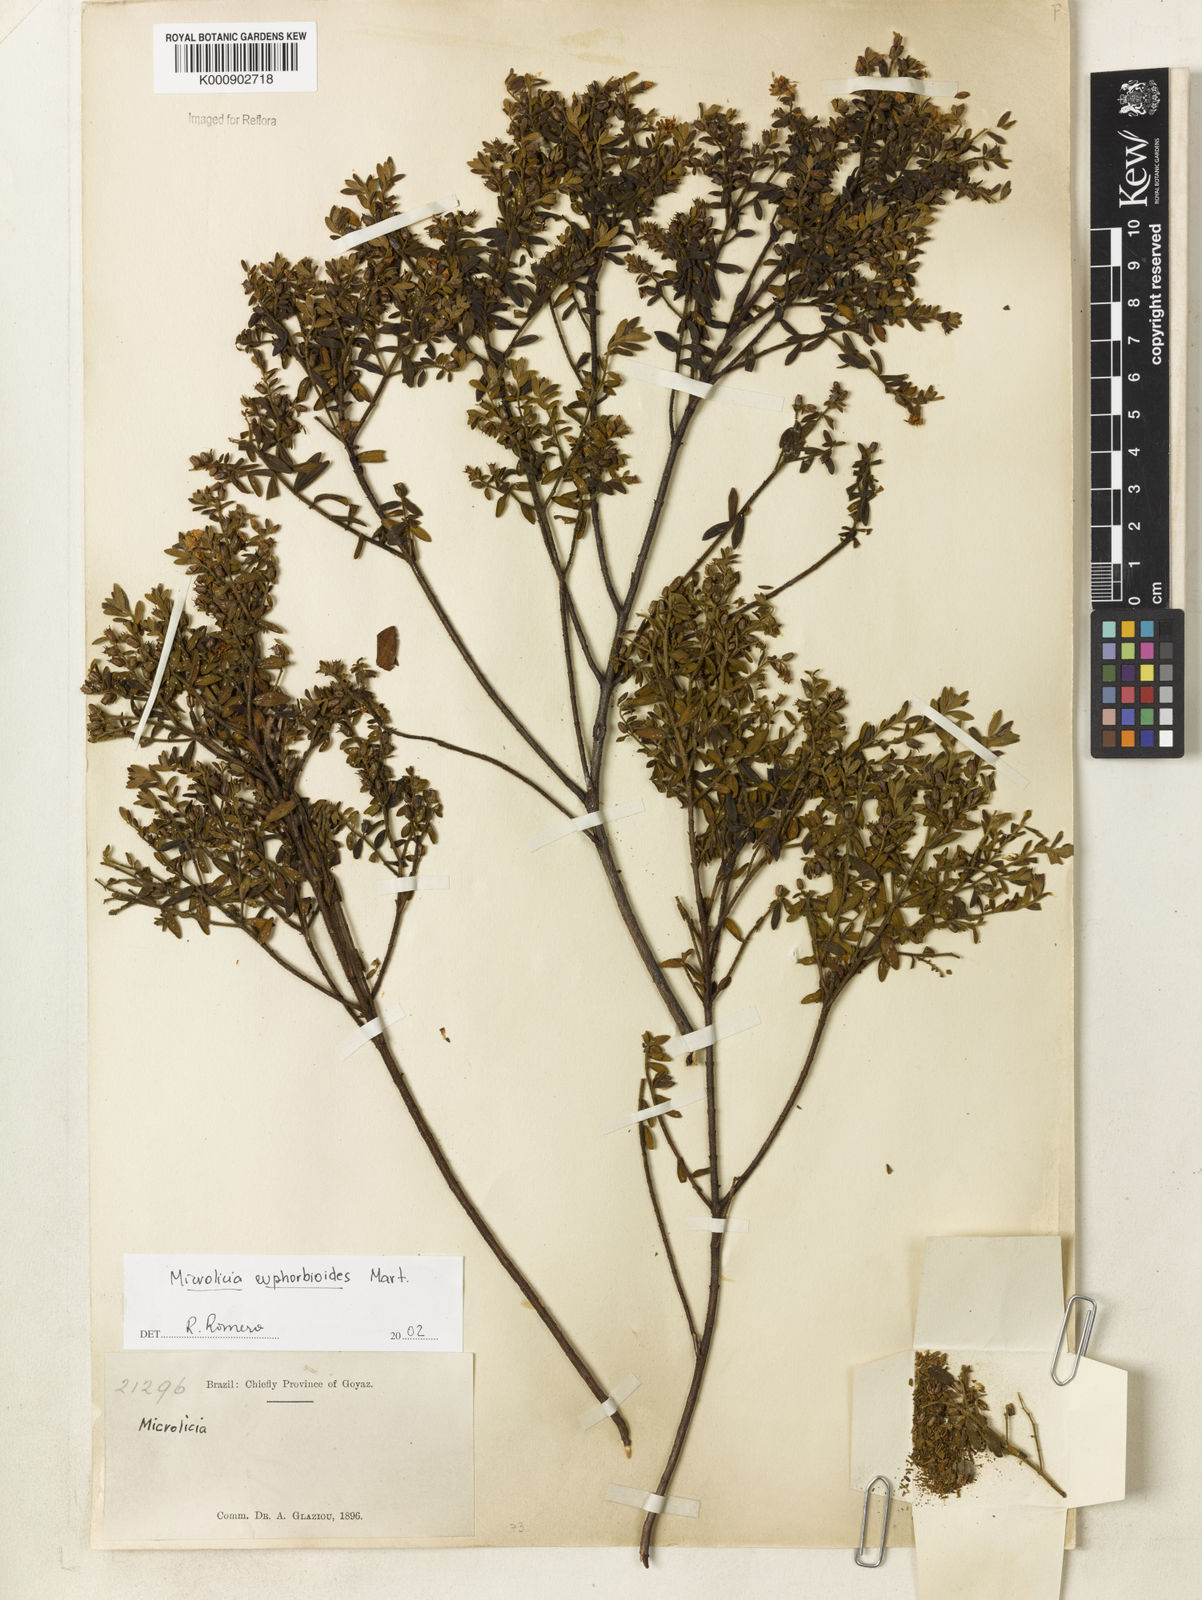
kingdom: Plantae
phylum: Tracheophyta
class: Magnoliopsida
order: Myrtales
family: Melastomataceae
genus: Microlicia
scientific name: Microlicia euphorbioides
